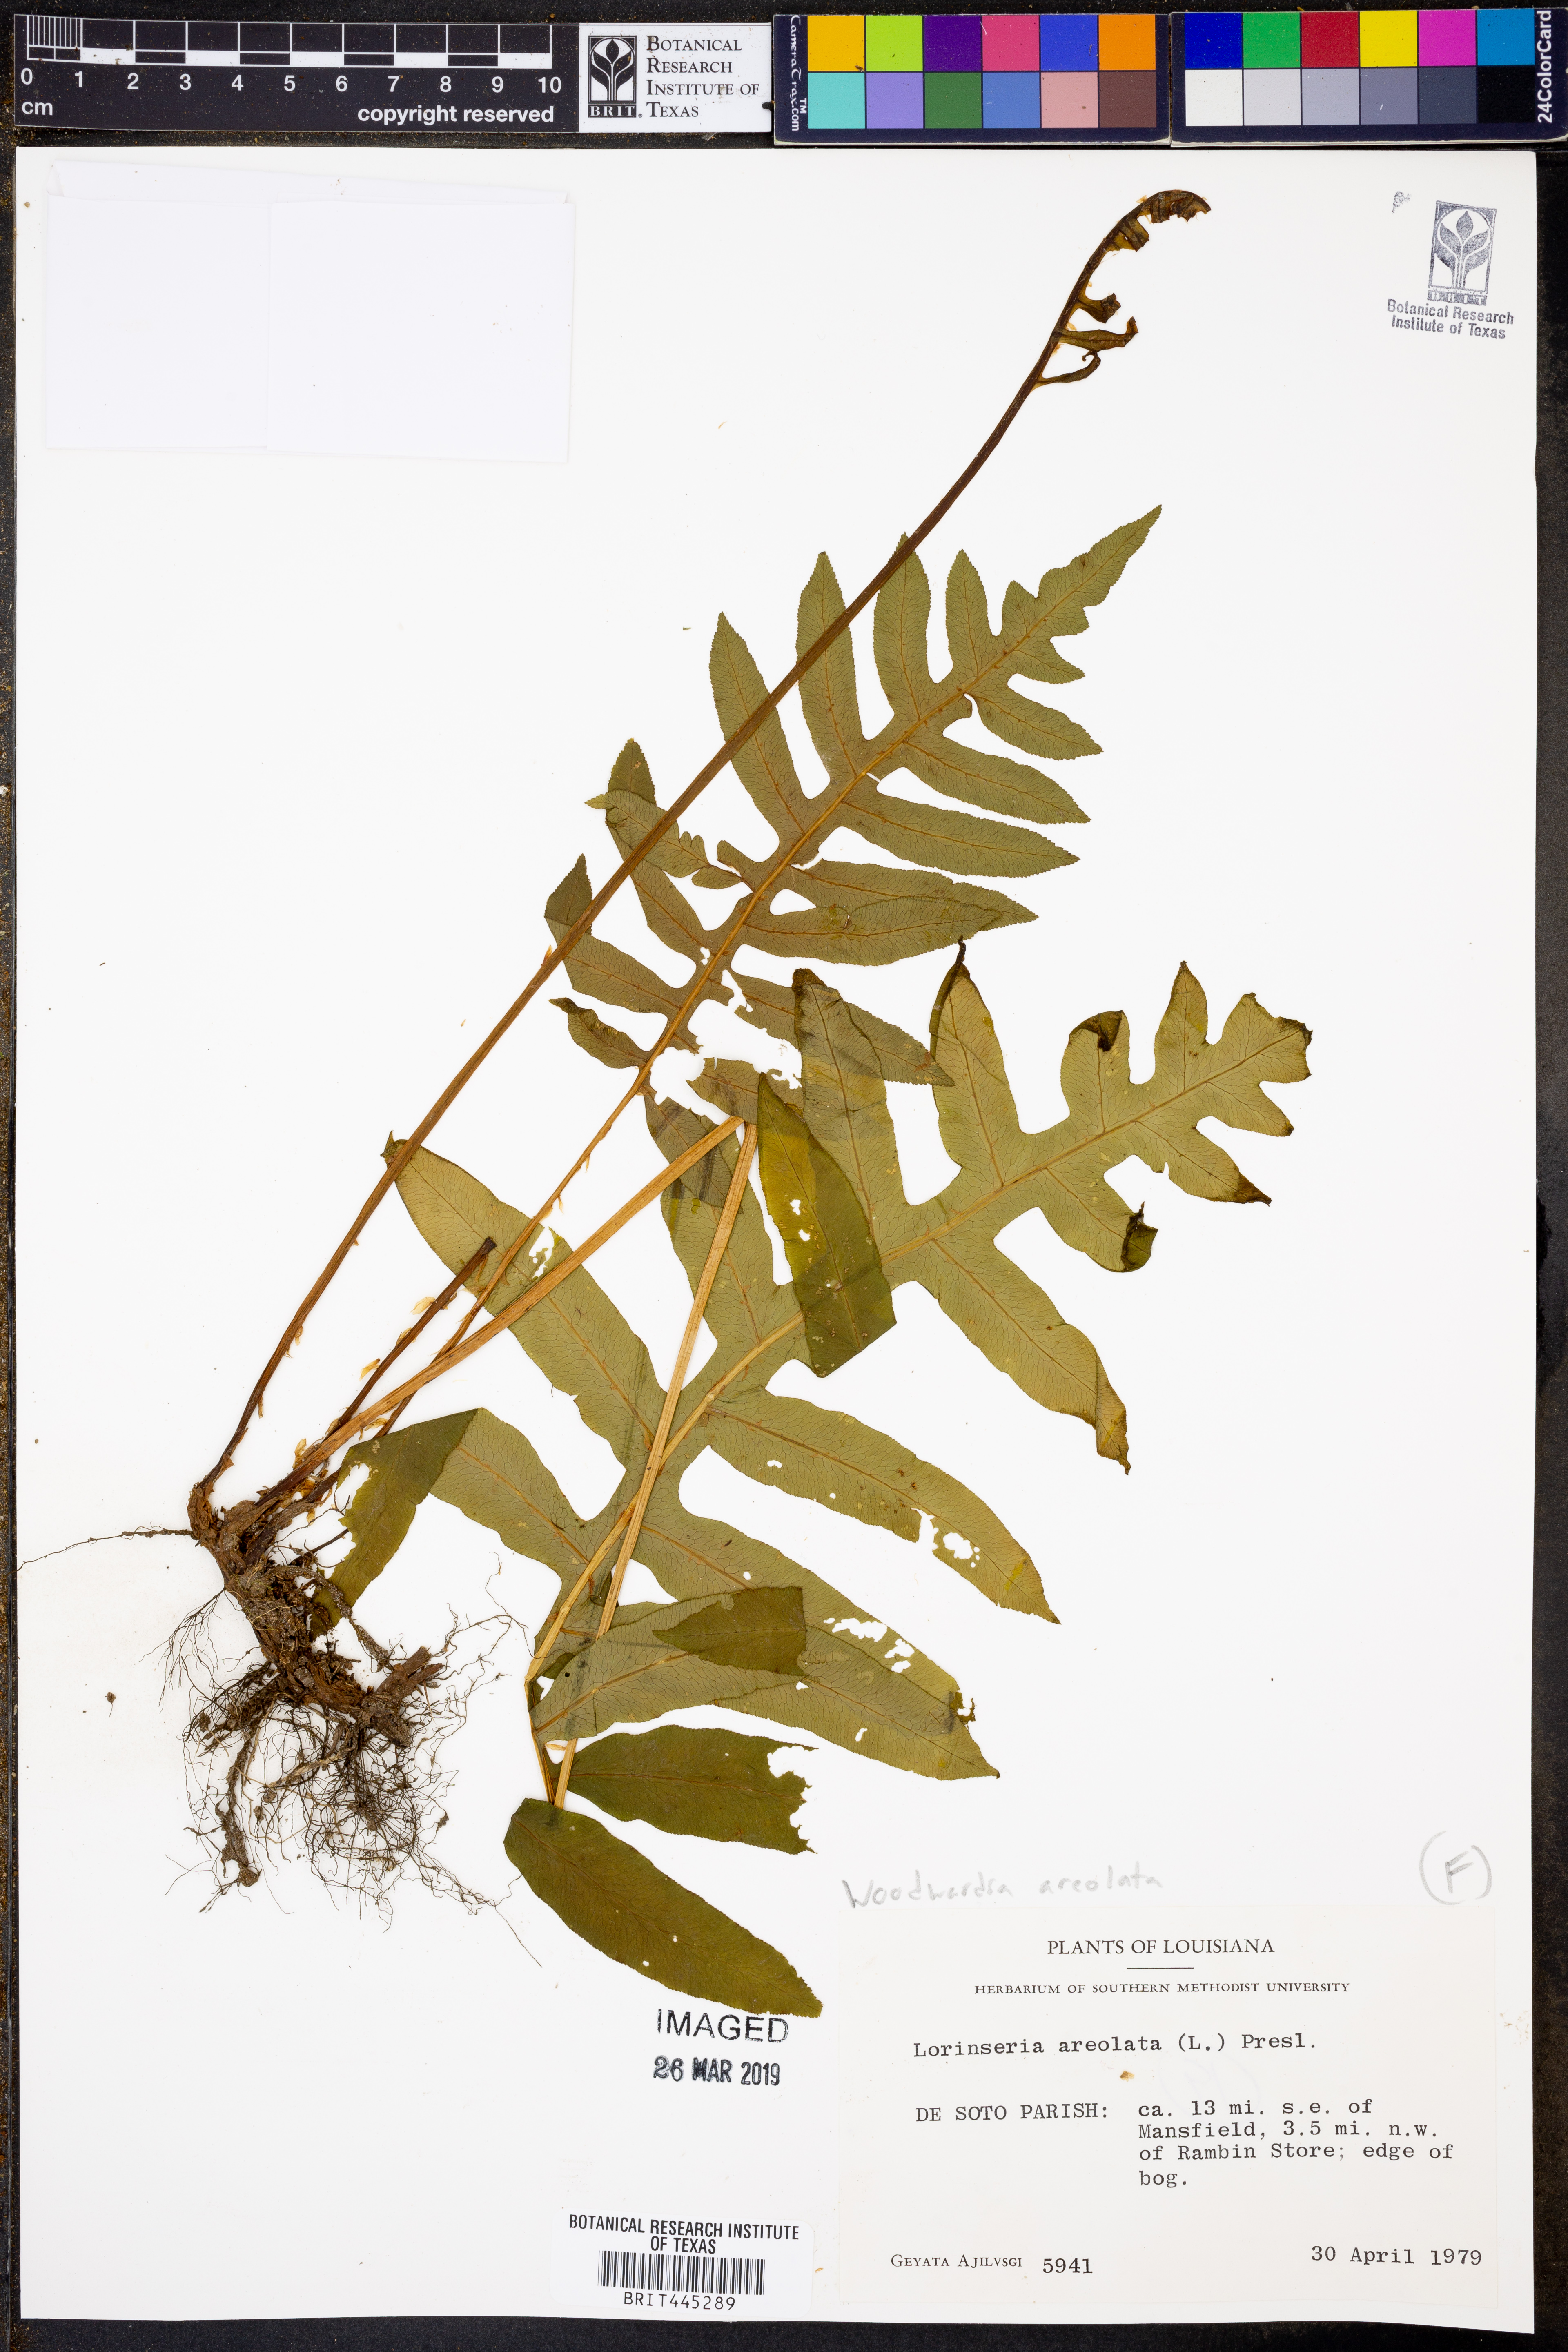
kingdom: Plantae
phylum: Tracheophyta
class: Polypodiopsida
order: Polypodiales
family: Blechnaceae
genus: Lorinseria
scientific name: Lorinseria areolata
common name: Dwarf chain fern
